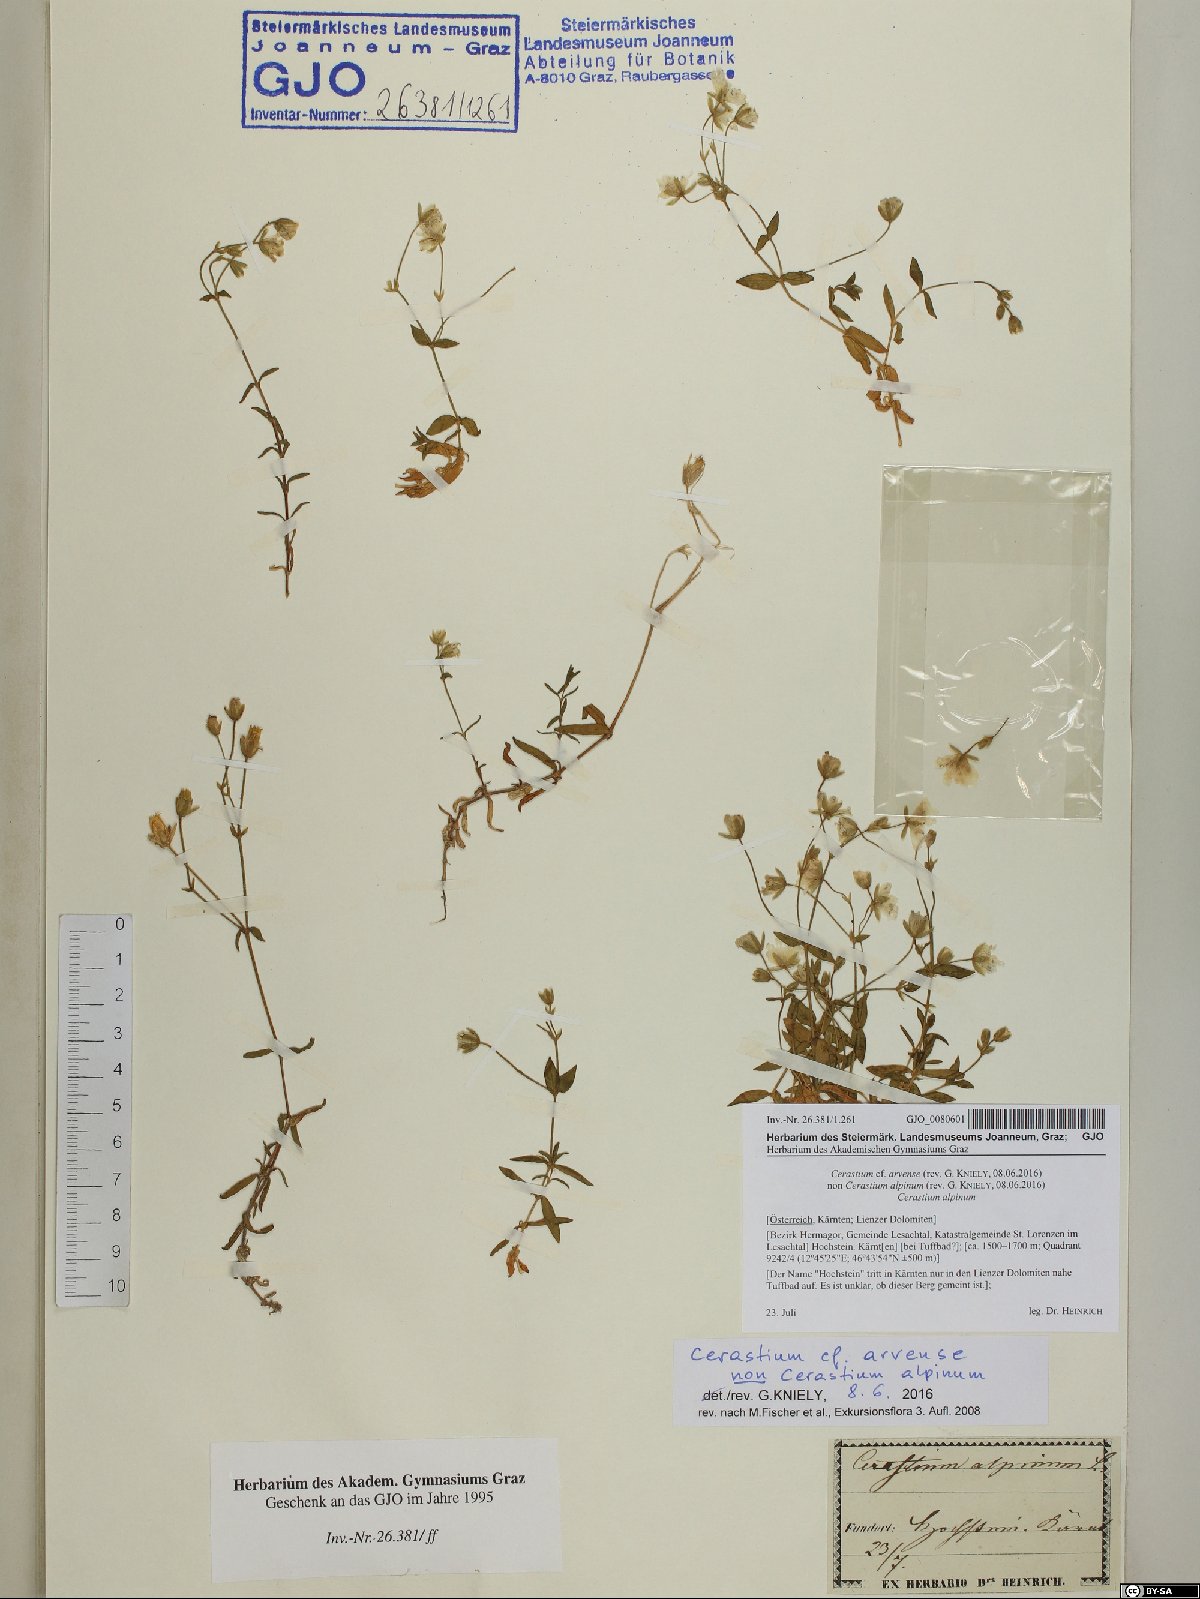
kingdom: Plantae
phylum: Tracheophyta
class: Magnoliopsida
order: Caryophyllales
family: Caryophyllaceae
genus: Cerastium
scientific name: Cerastium arvense
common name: Field mouse-ear
